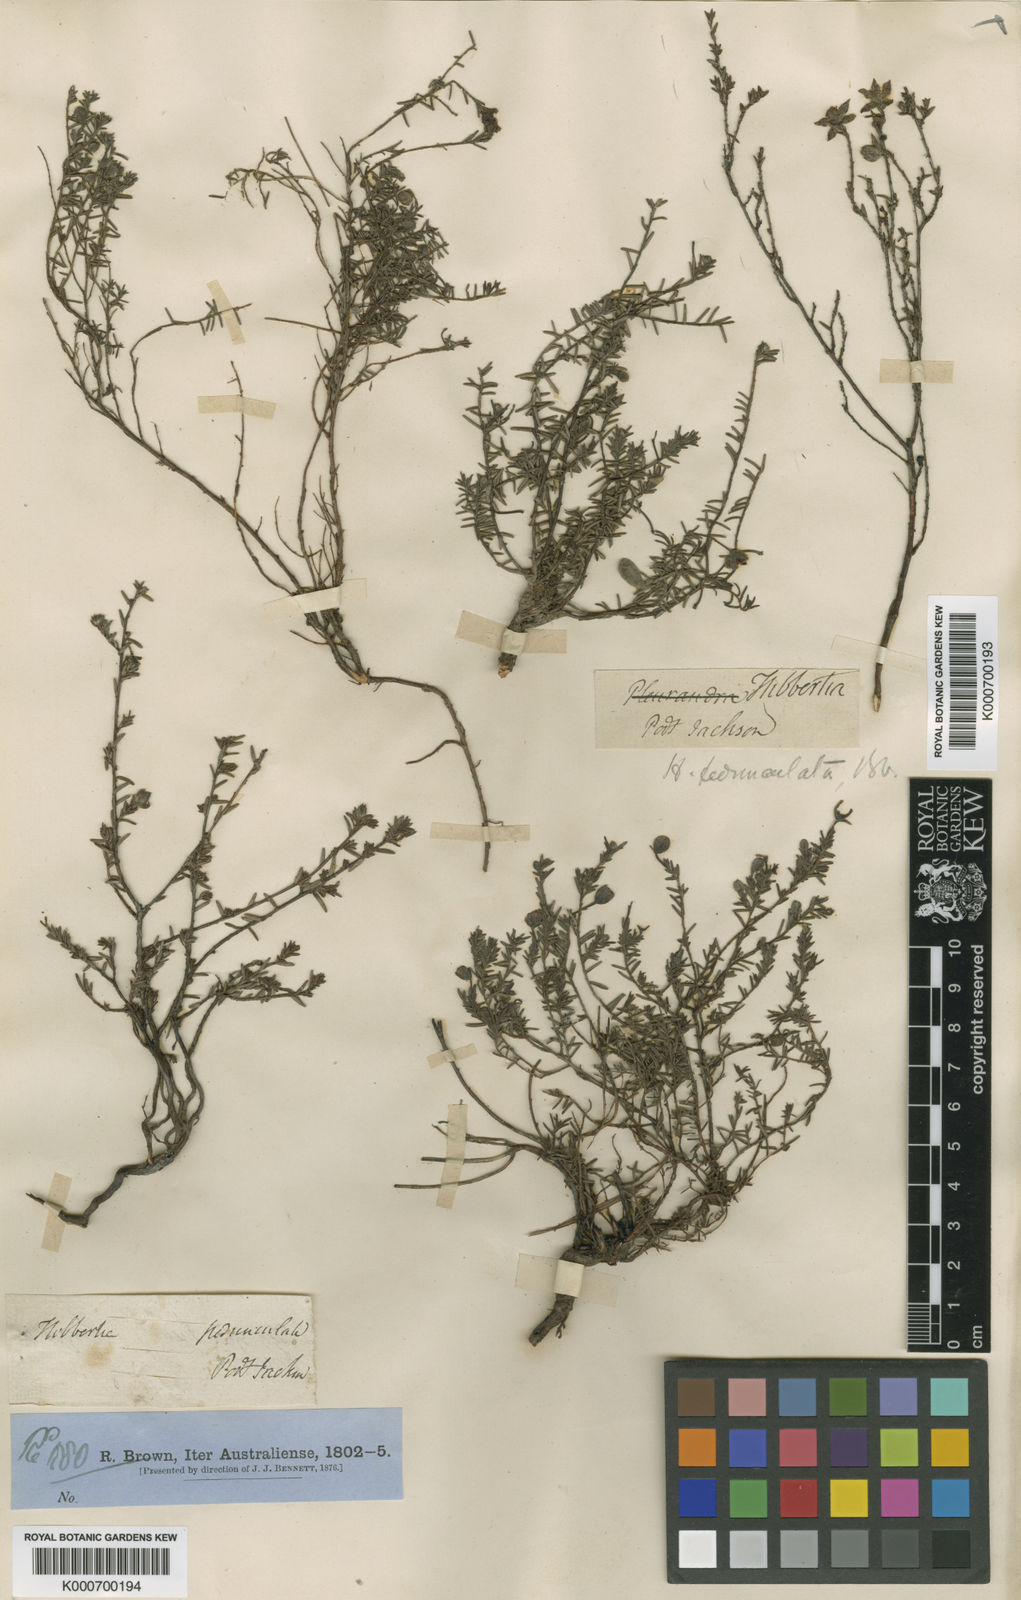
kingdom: Plantae
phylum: Tracheophyta
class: Magnoliopsida
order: Dilleniales
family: Dilleniaceae
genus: Hibbertia
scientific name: Hibbertia pedunculata
